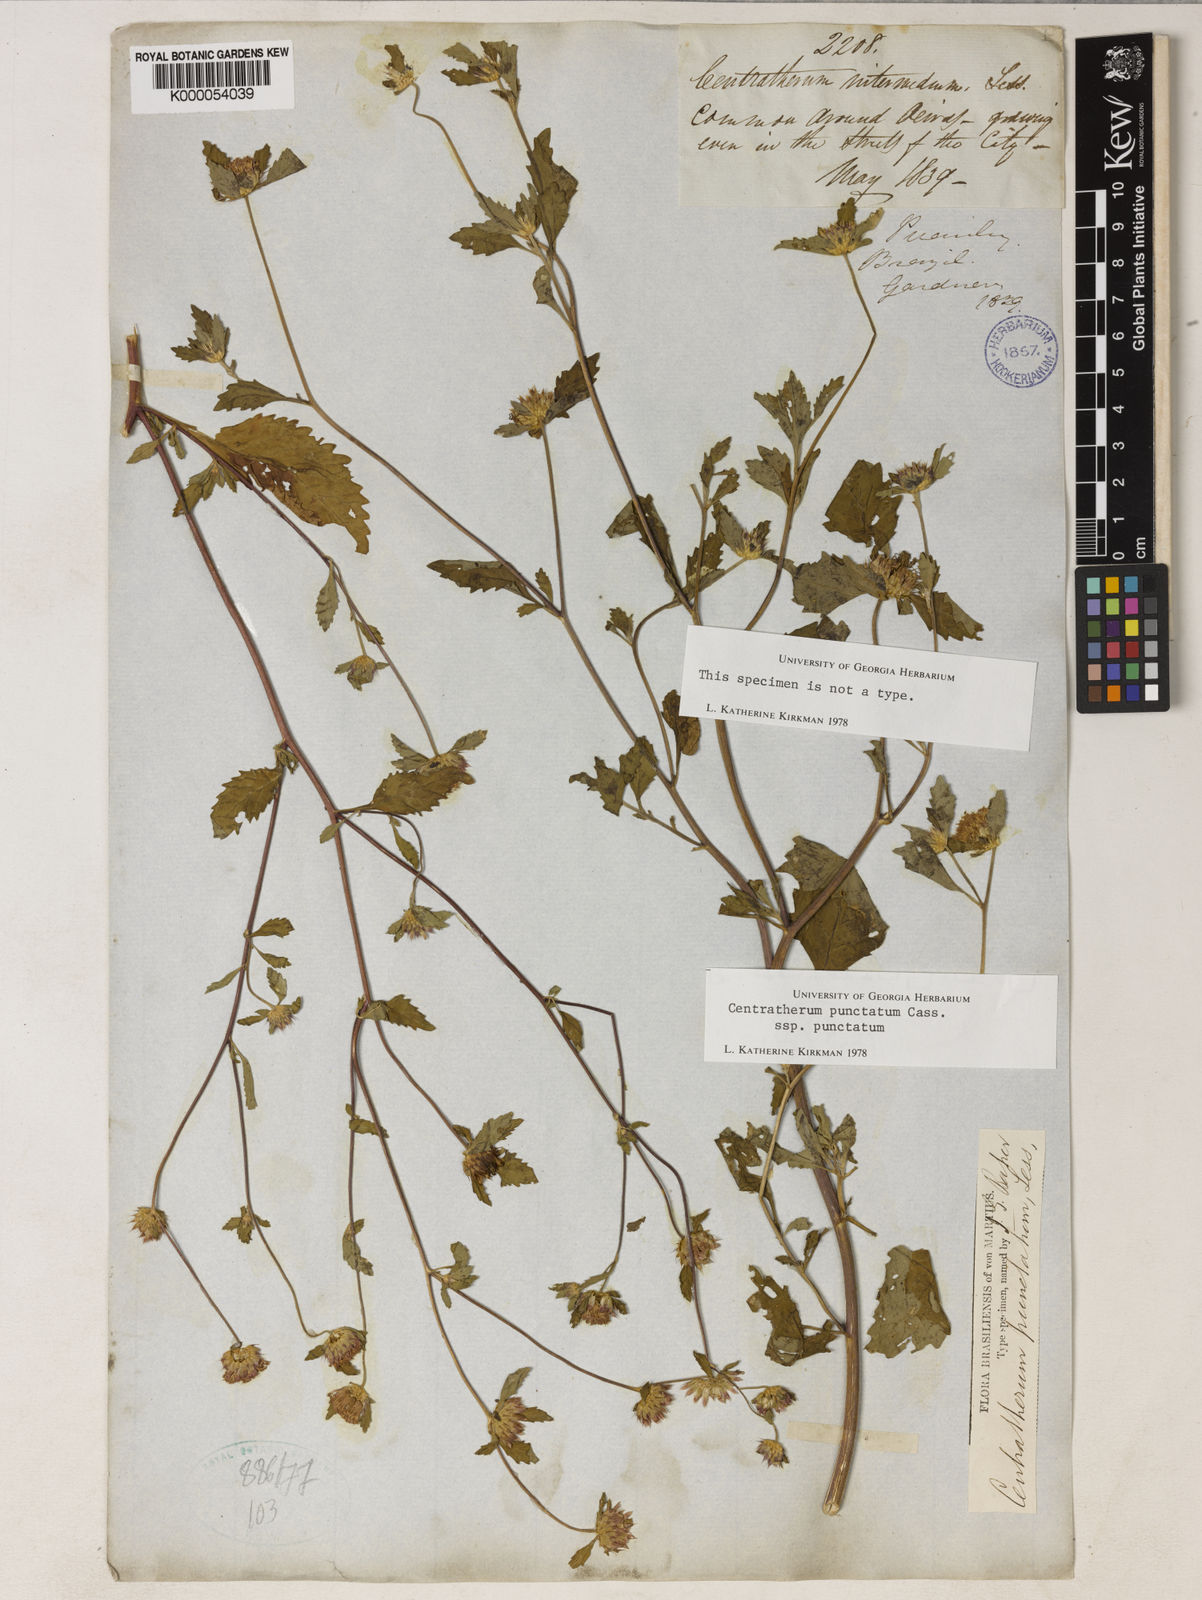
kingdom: Plantae
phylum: Tracheophyta
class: Magnoliopsida
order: Asterales
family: Asteraceae
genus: Centratherum
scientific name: Centratherum punctatum
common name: Larkdaisy
